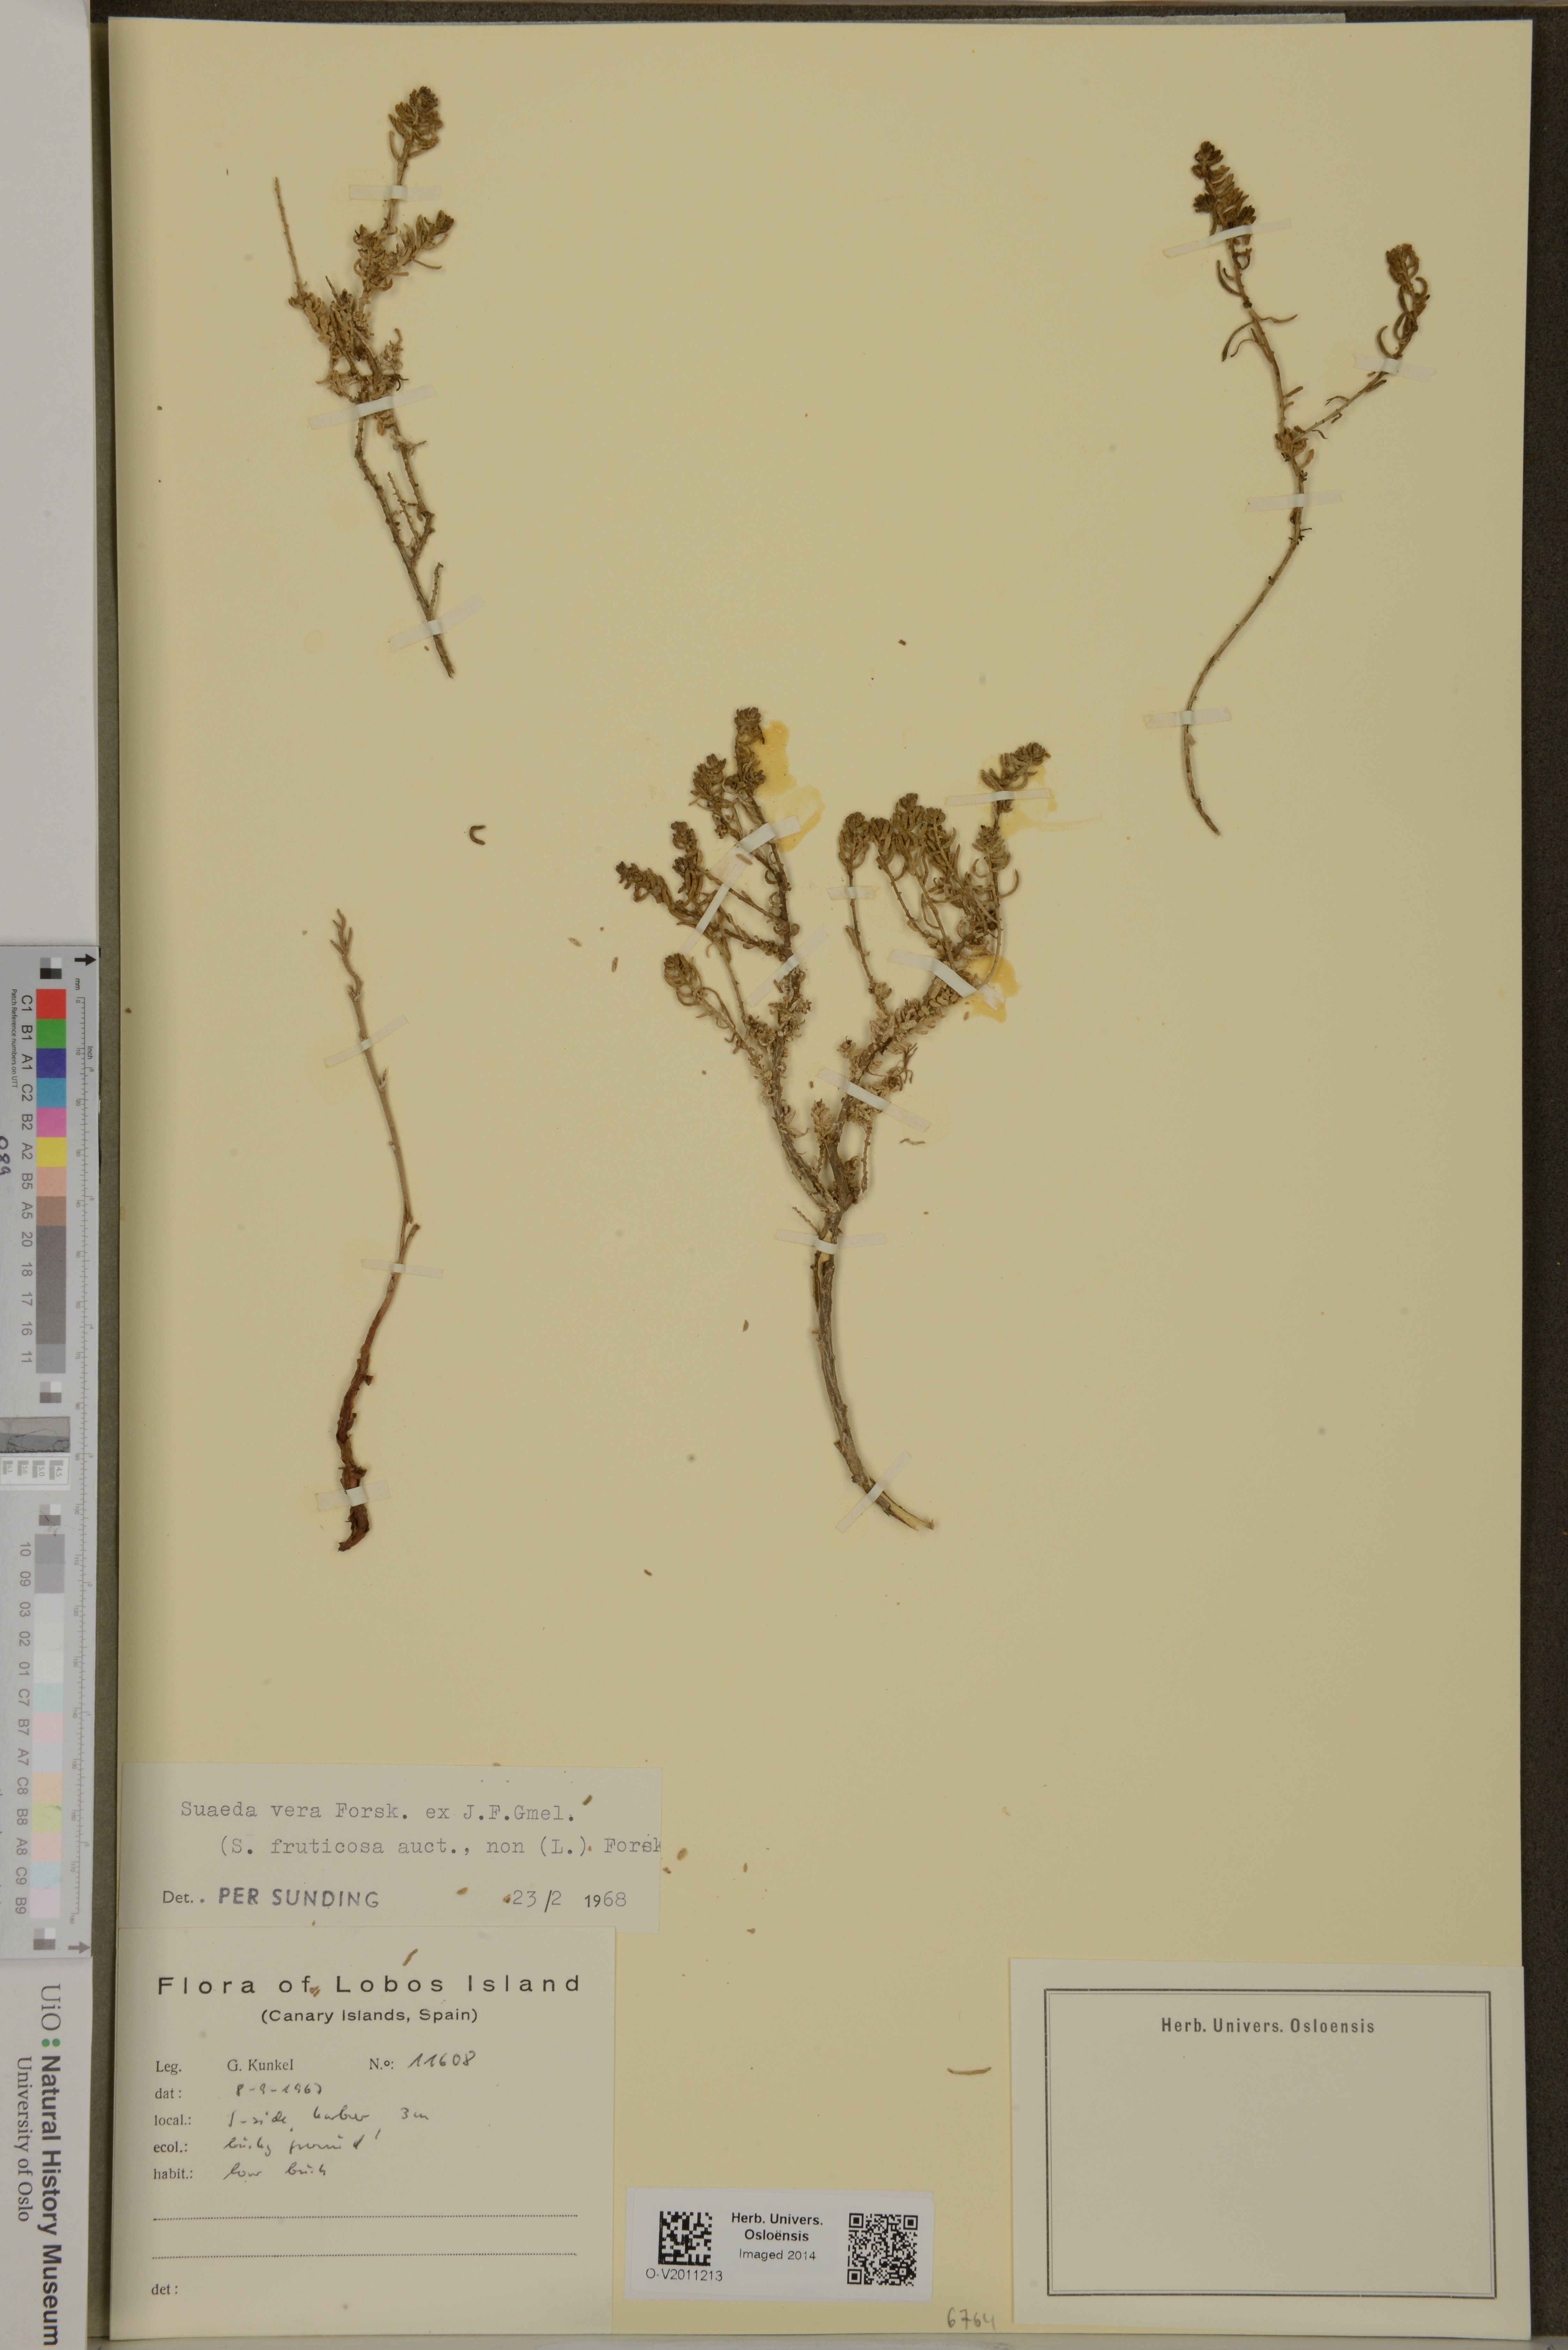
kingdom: Plantae
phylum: Tracheophyta
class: Magnoliopsida
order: Caryophyllales
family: Amaranthaceae
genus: Suaeda
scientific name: Suaeda vera
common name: Shrubby sea-blite
